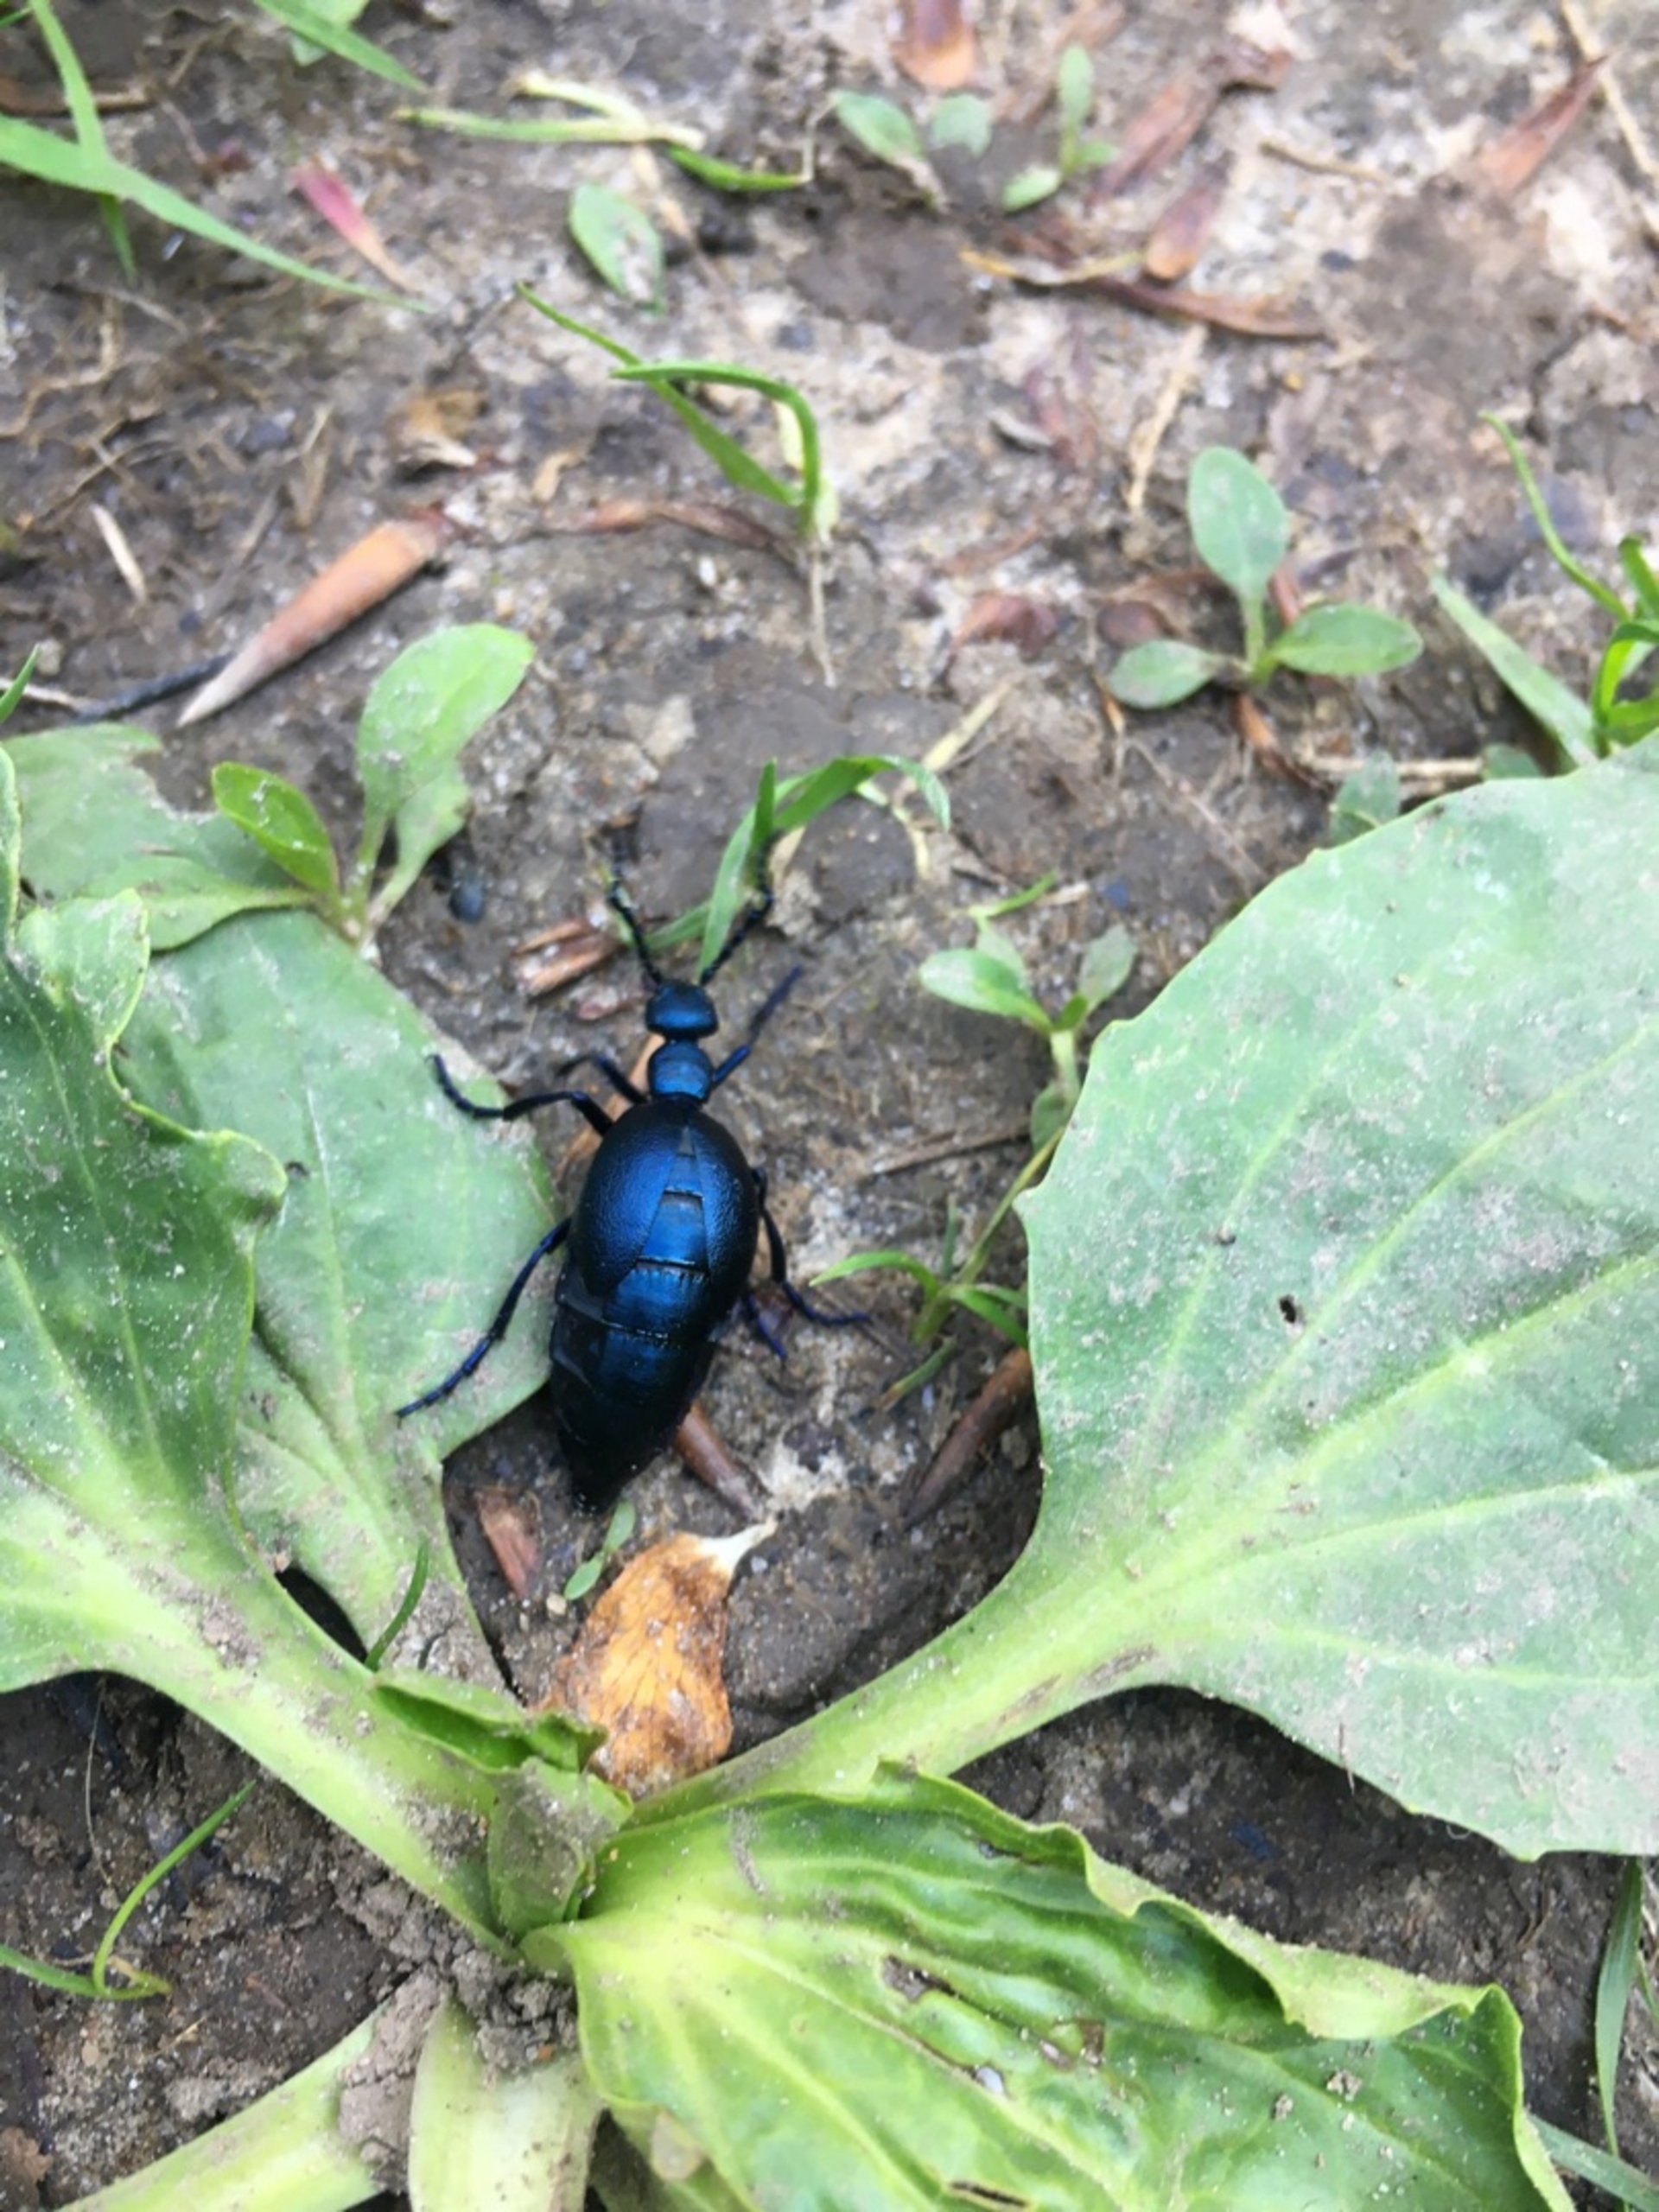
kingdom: Animalia
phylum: Arthropoda
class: Insecta
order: Coleoptera
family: Meloidae
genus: Meloe
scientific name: Meloe violaceus
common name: Blå oliebille
